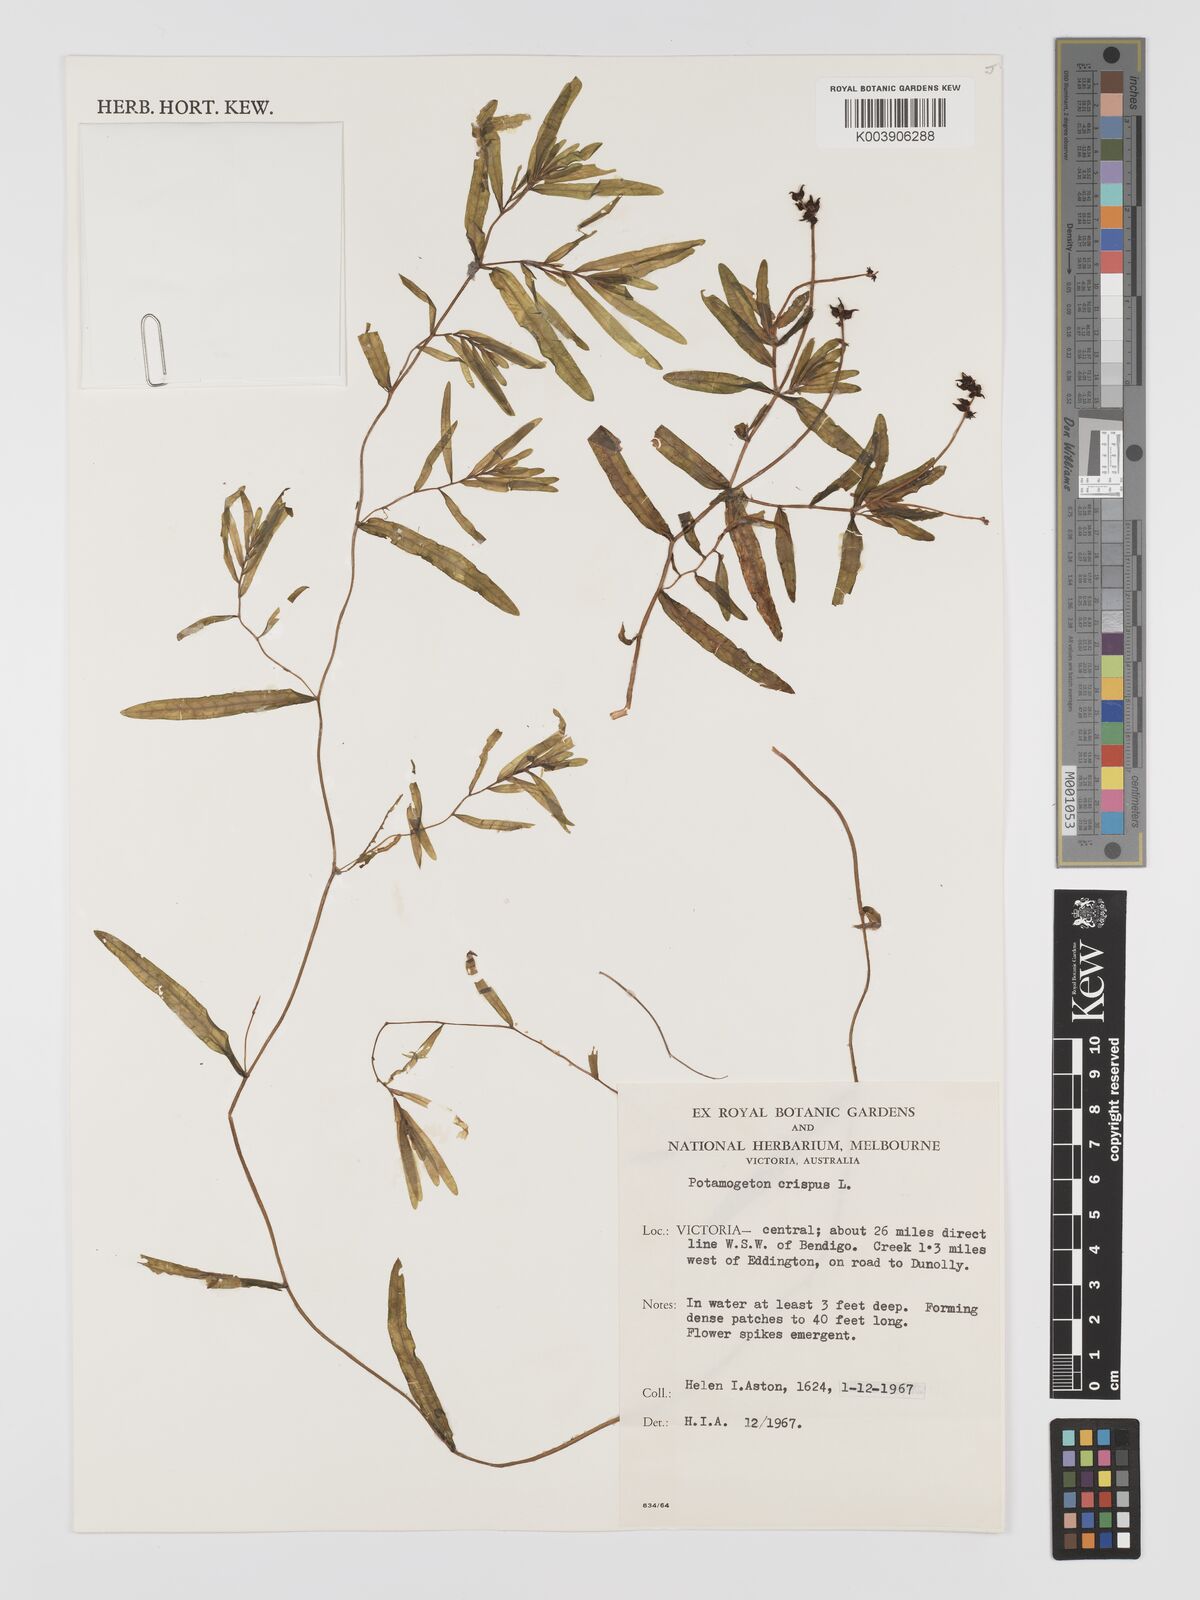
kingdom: Plantae
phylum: Tracheophyta
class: Liliopsida
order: Alismatales
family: Potamogetonaceae
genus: Potamogeton
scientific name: Potamogeton crispus
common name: Curled pondweed
